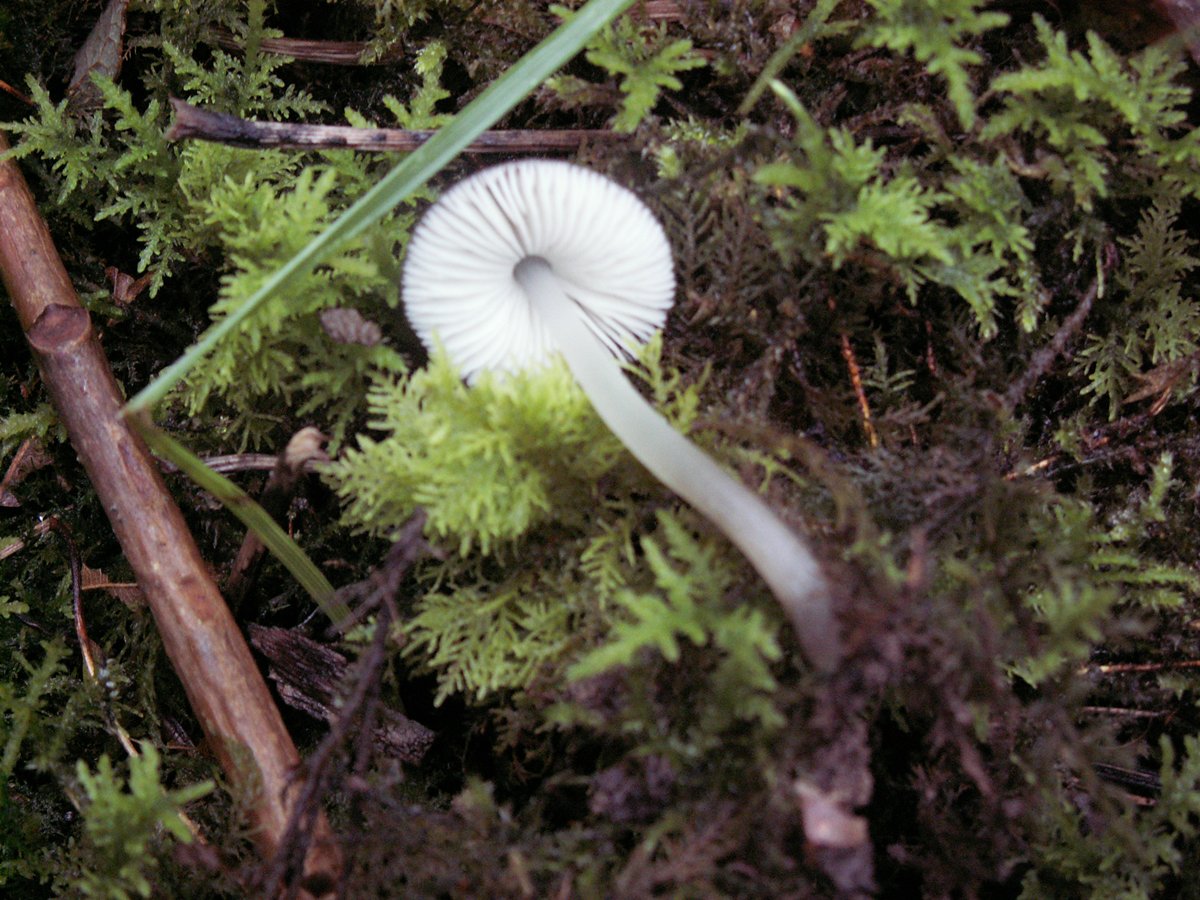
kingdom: Fungi
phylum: Basidiomycota
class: Agaricomycetes
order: Agaricales
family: Pluteaceae
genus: Pluteus
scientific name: Pluteus
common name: pudret skærmhat
